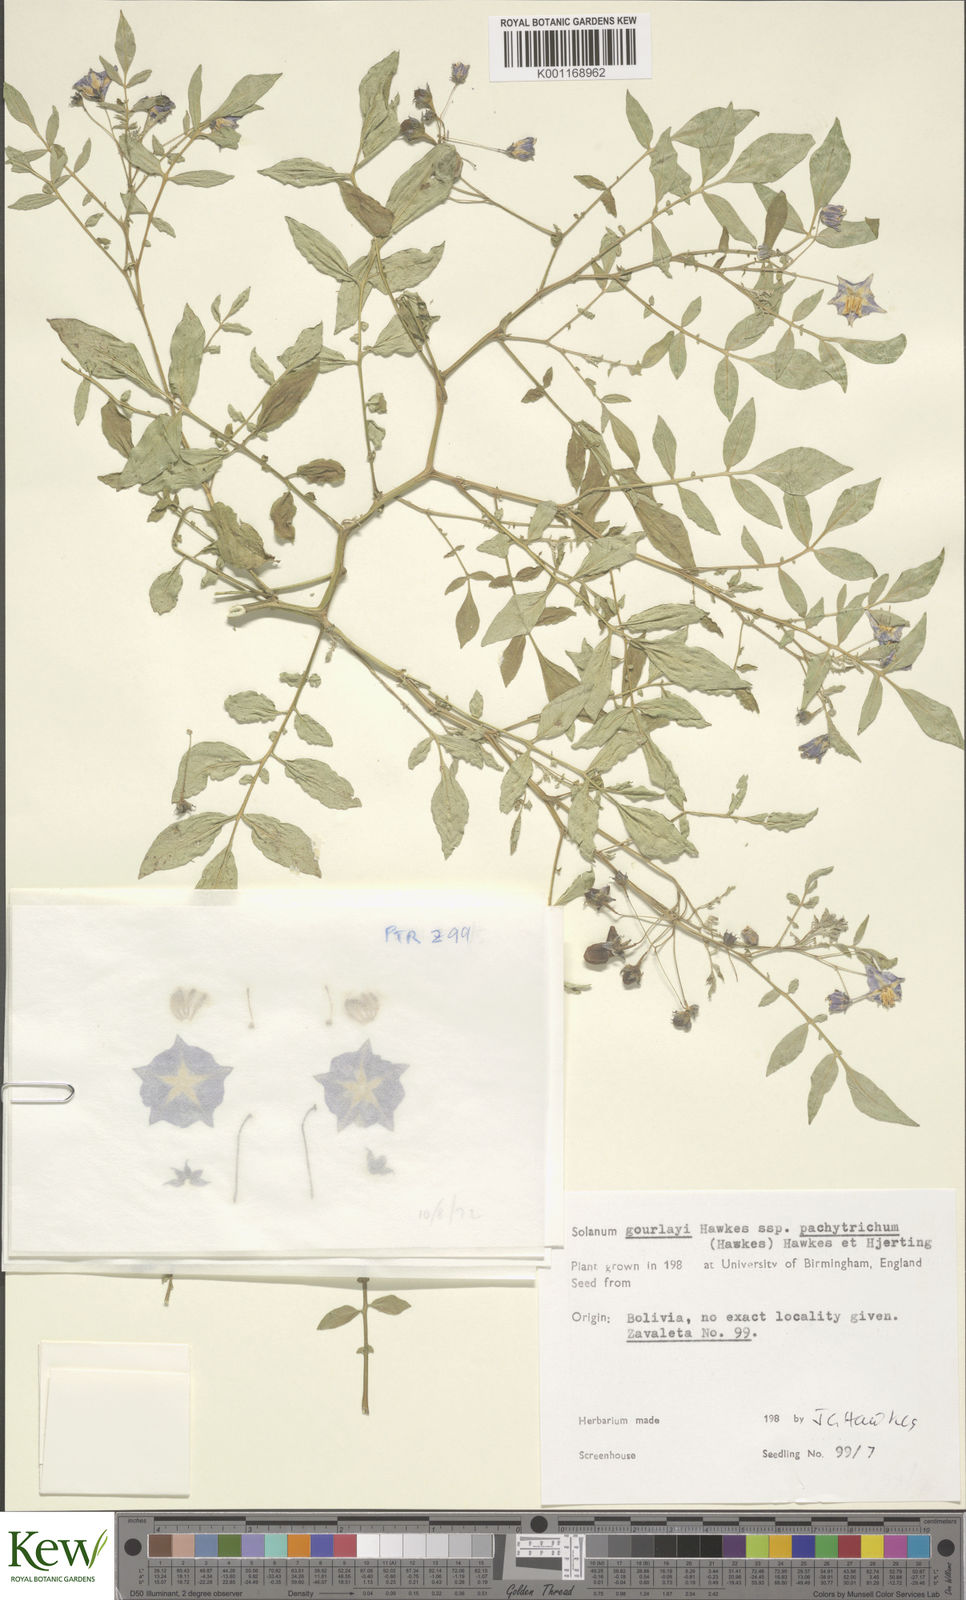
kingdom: Plantae
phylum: Tracheophyta
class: Magnoliopsida
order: Solanales
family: Solanaceae
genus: Solanum
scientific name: Solanum brevicaule
